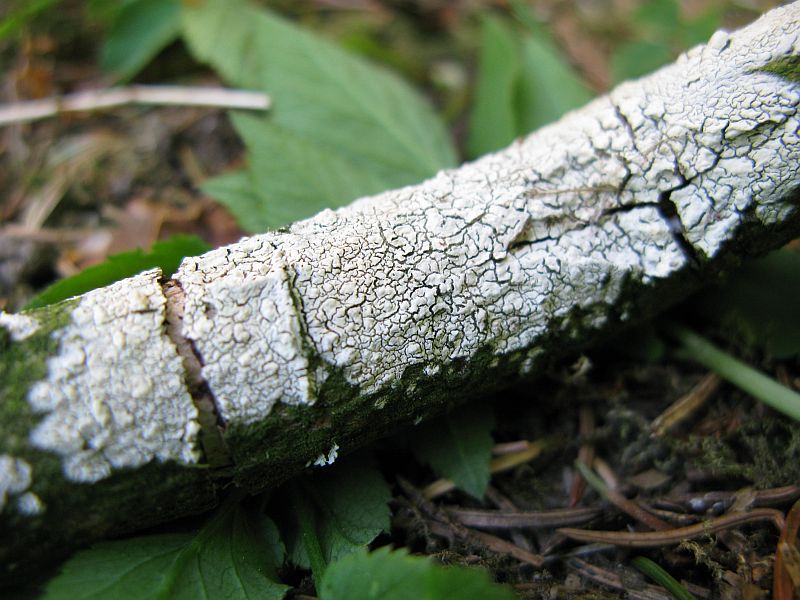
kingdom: Fungi
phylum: Basidiomycota
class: Agaricomycetes
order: Corticiales
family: Corticiaceae
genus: Lyomyces
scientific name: Lyomyces crustosus
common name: vortet hyldehinde
